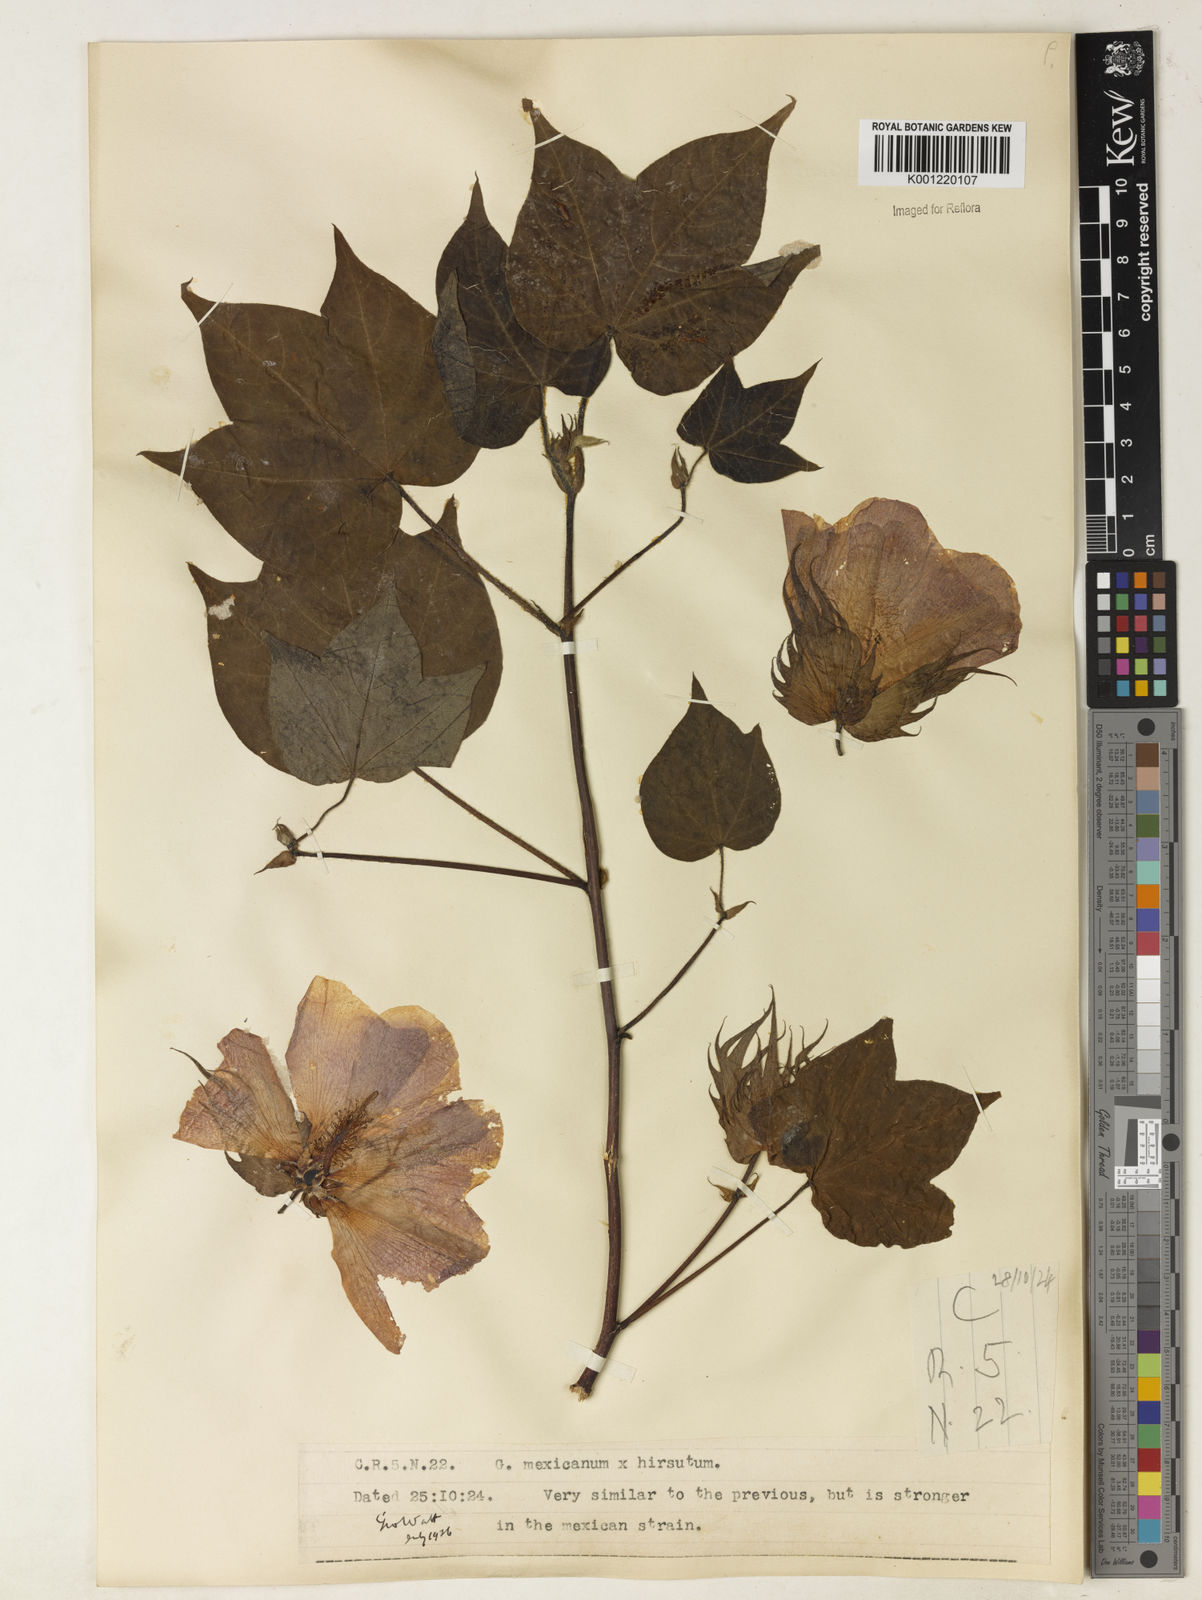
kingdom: Plantae
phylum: Tracheophyta
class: Magnoliopsida
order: Malvales
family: Malvaceae
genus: Gossypium
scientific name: Gossypium
